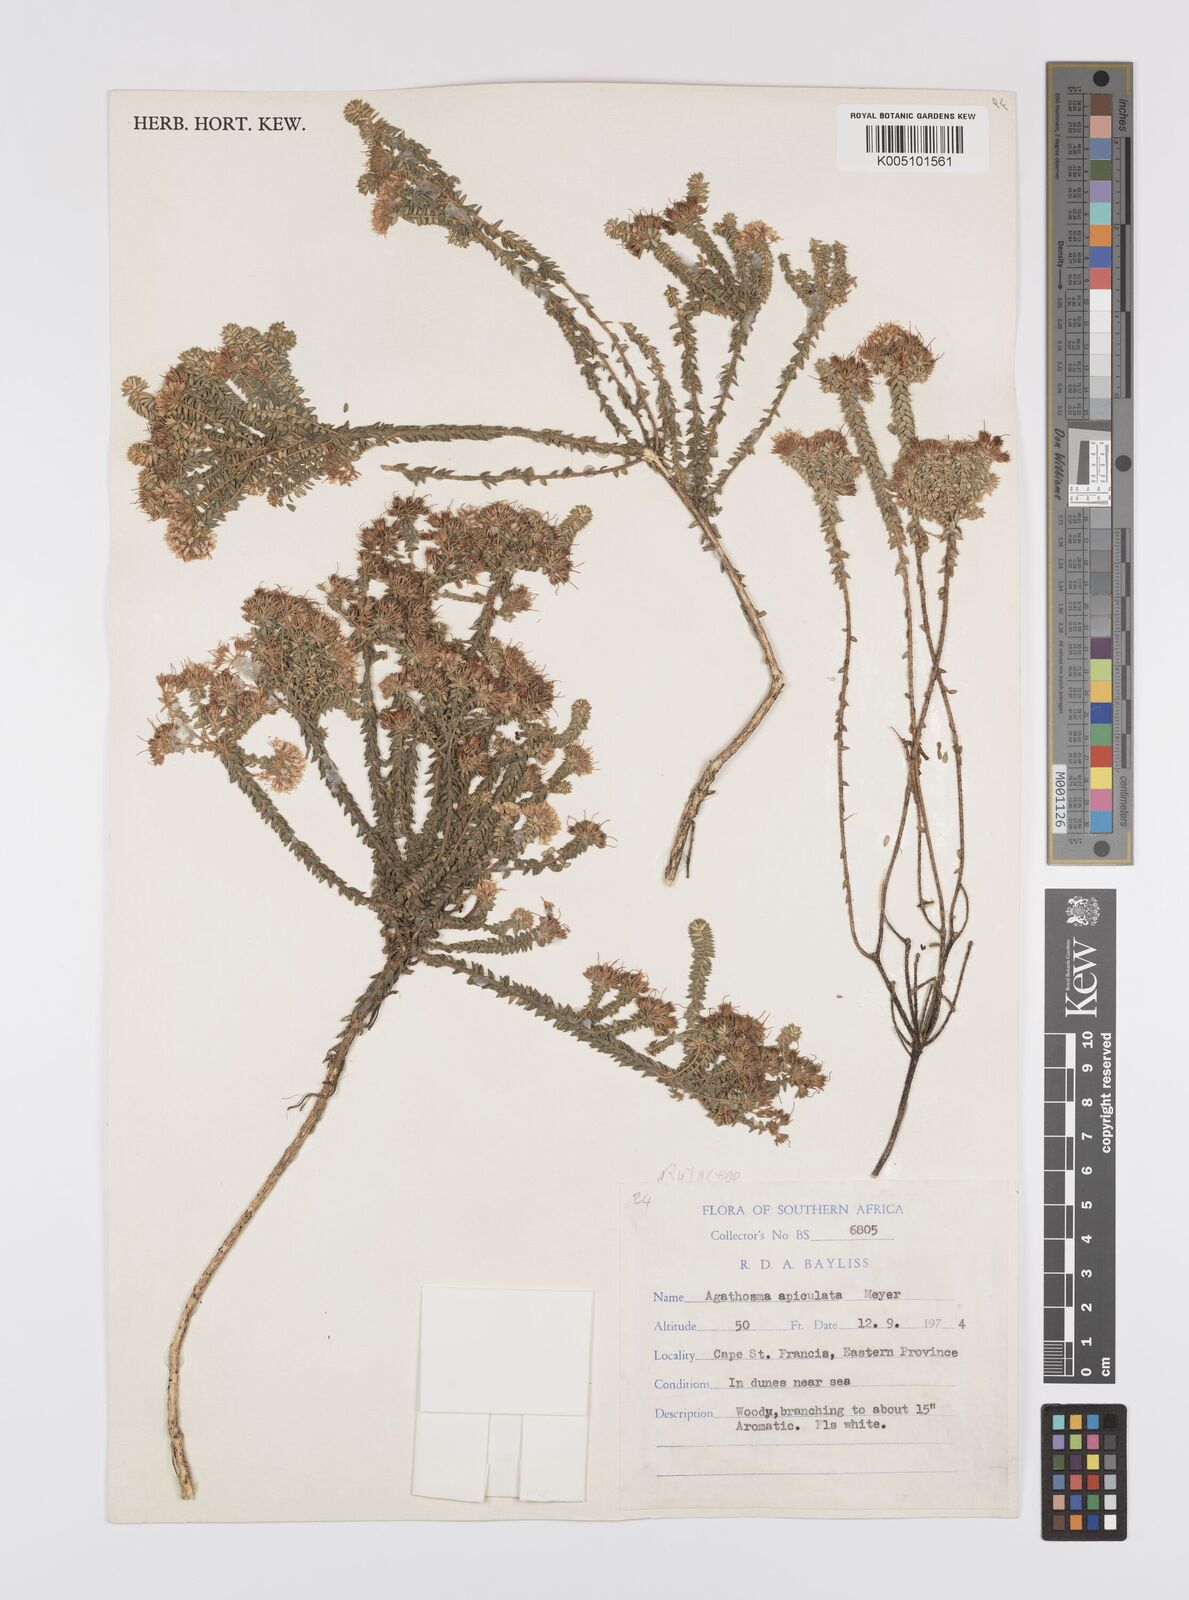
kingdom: Plantae
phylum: Tracheophyta
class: Magnoliopsida
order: Sapindales
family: Rutaceae
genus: Agathosma
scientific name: Agathosma
